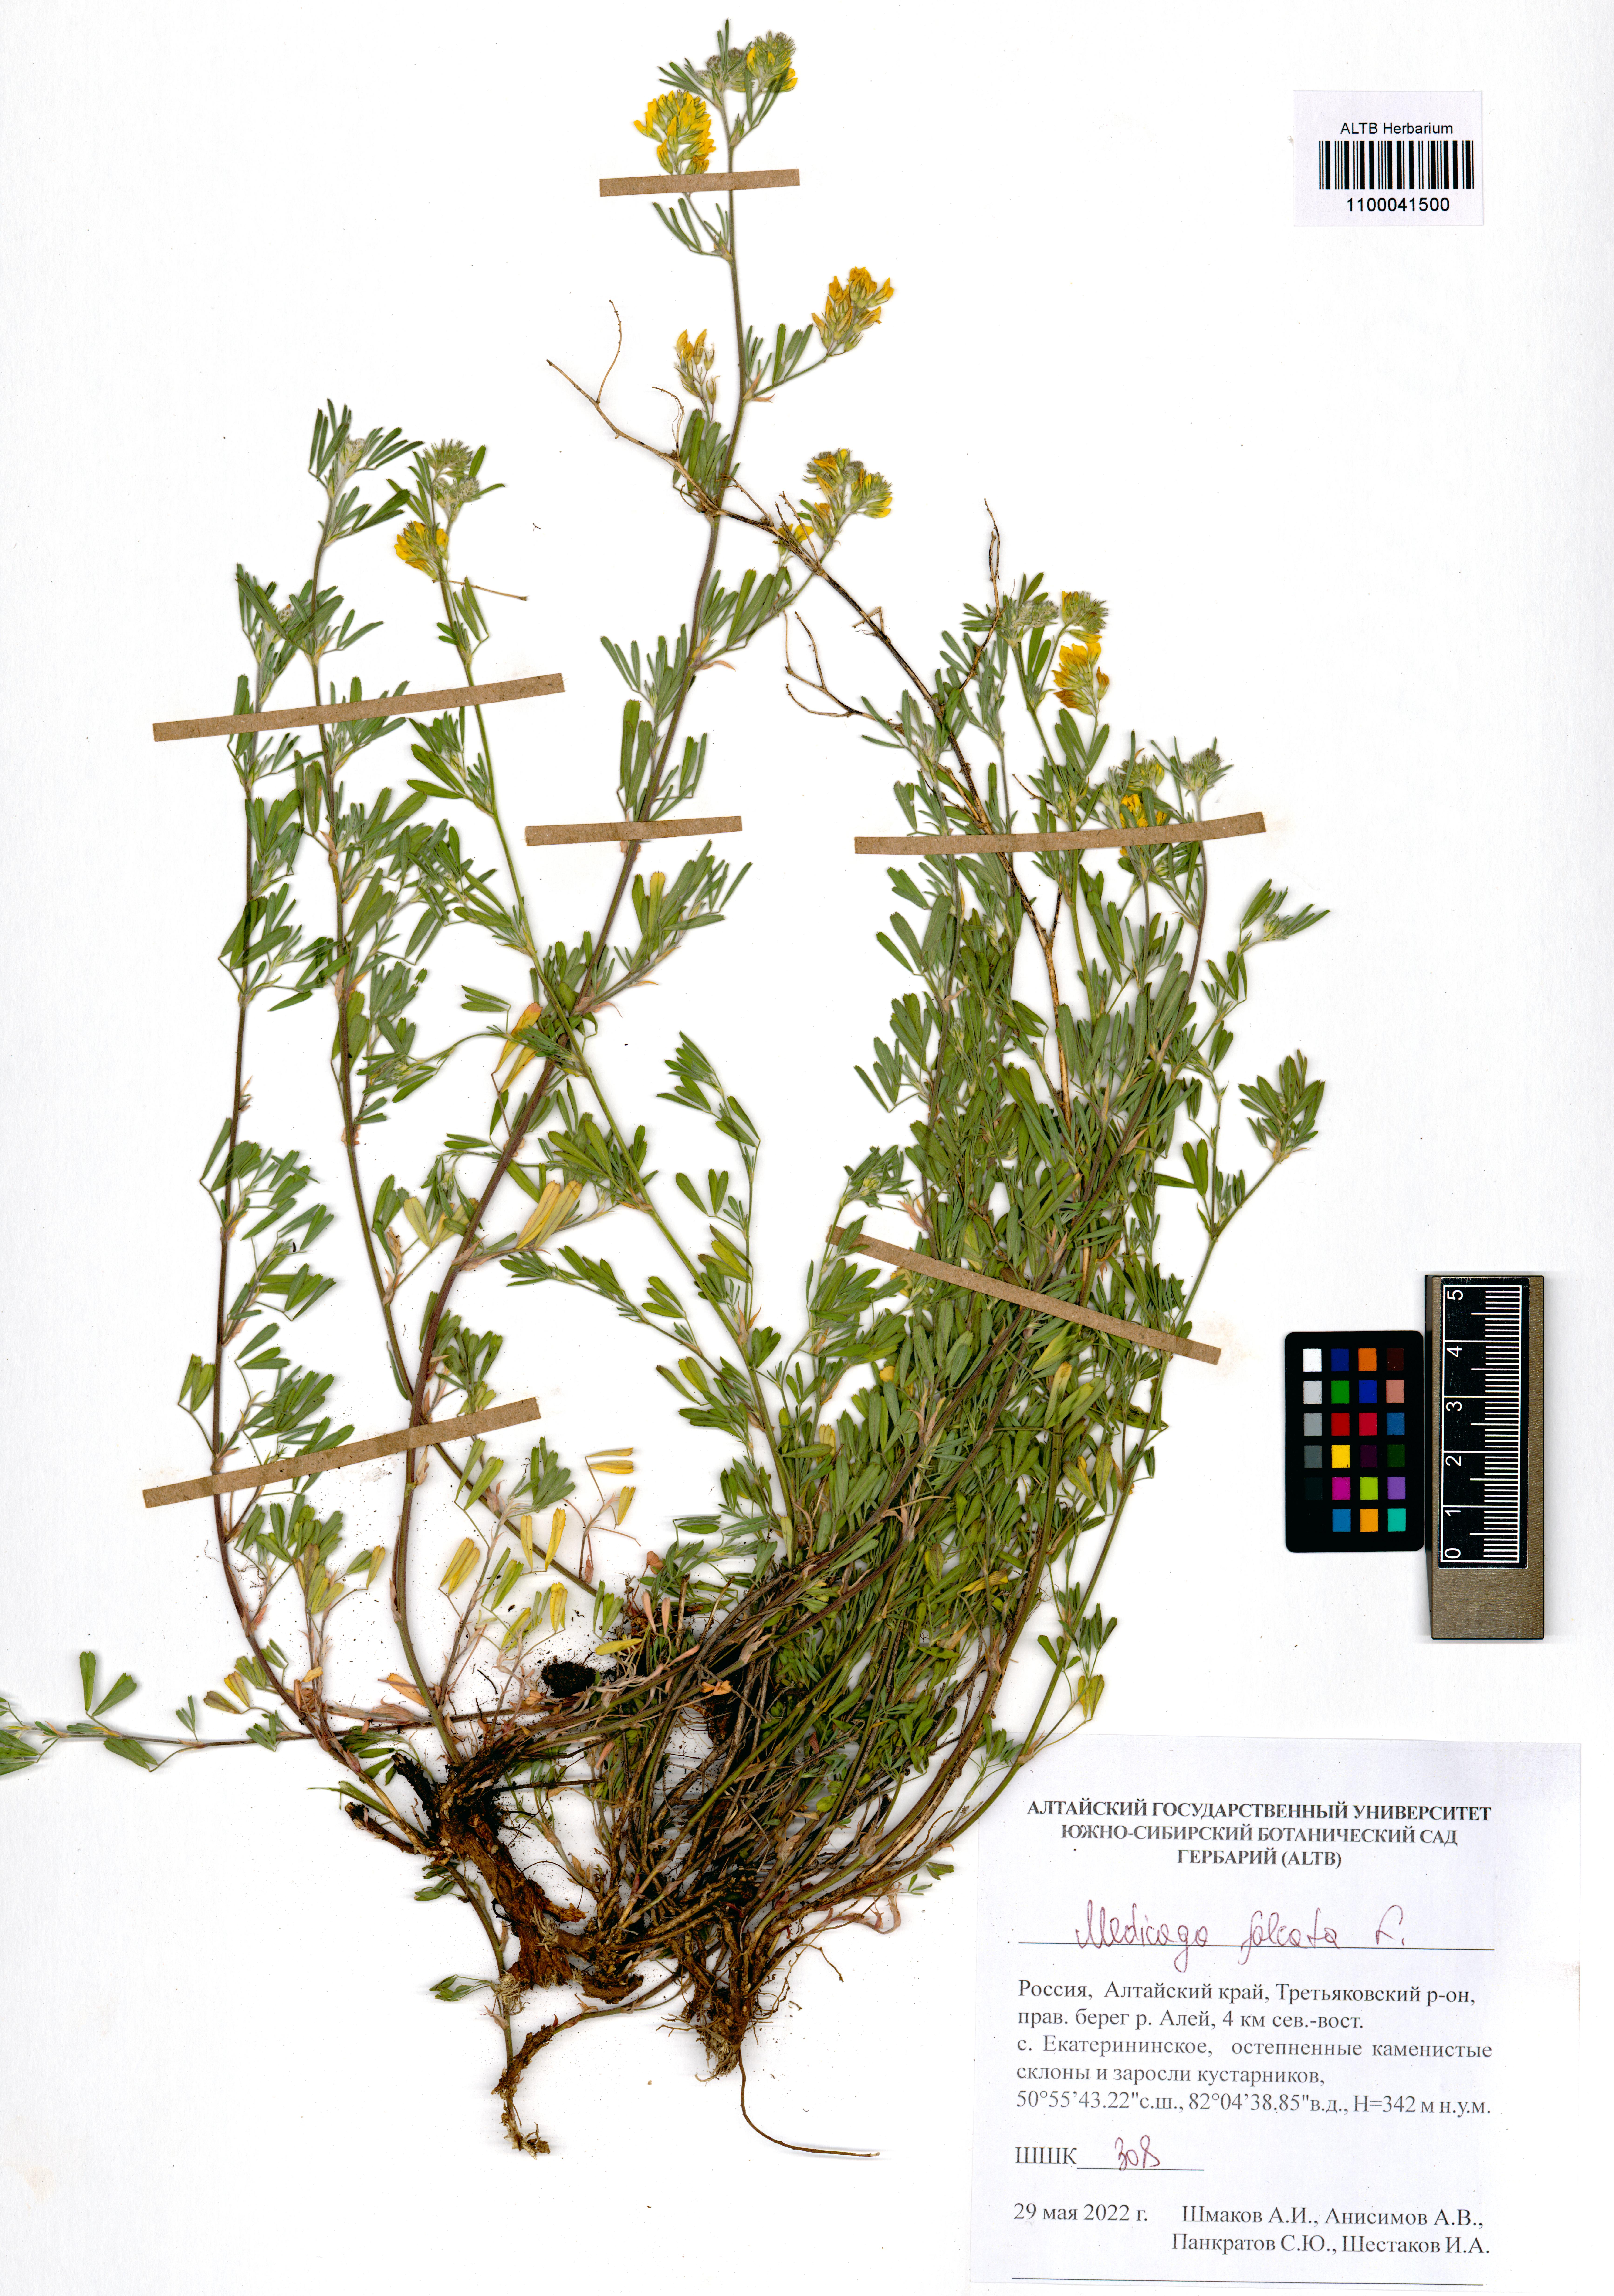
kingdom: Plantae
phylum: Tracheophyta
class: Magnoliopsida
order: Fabales
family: Fabaceae
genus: Medicago
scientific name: Medicago falcata
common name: Sickle medick
